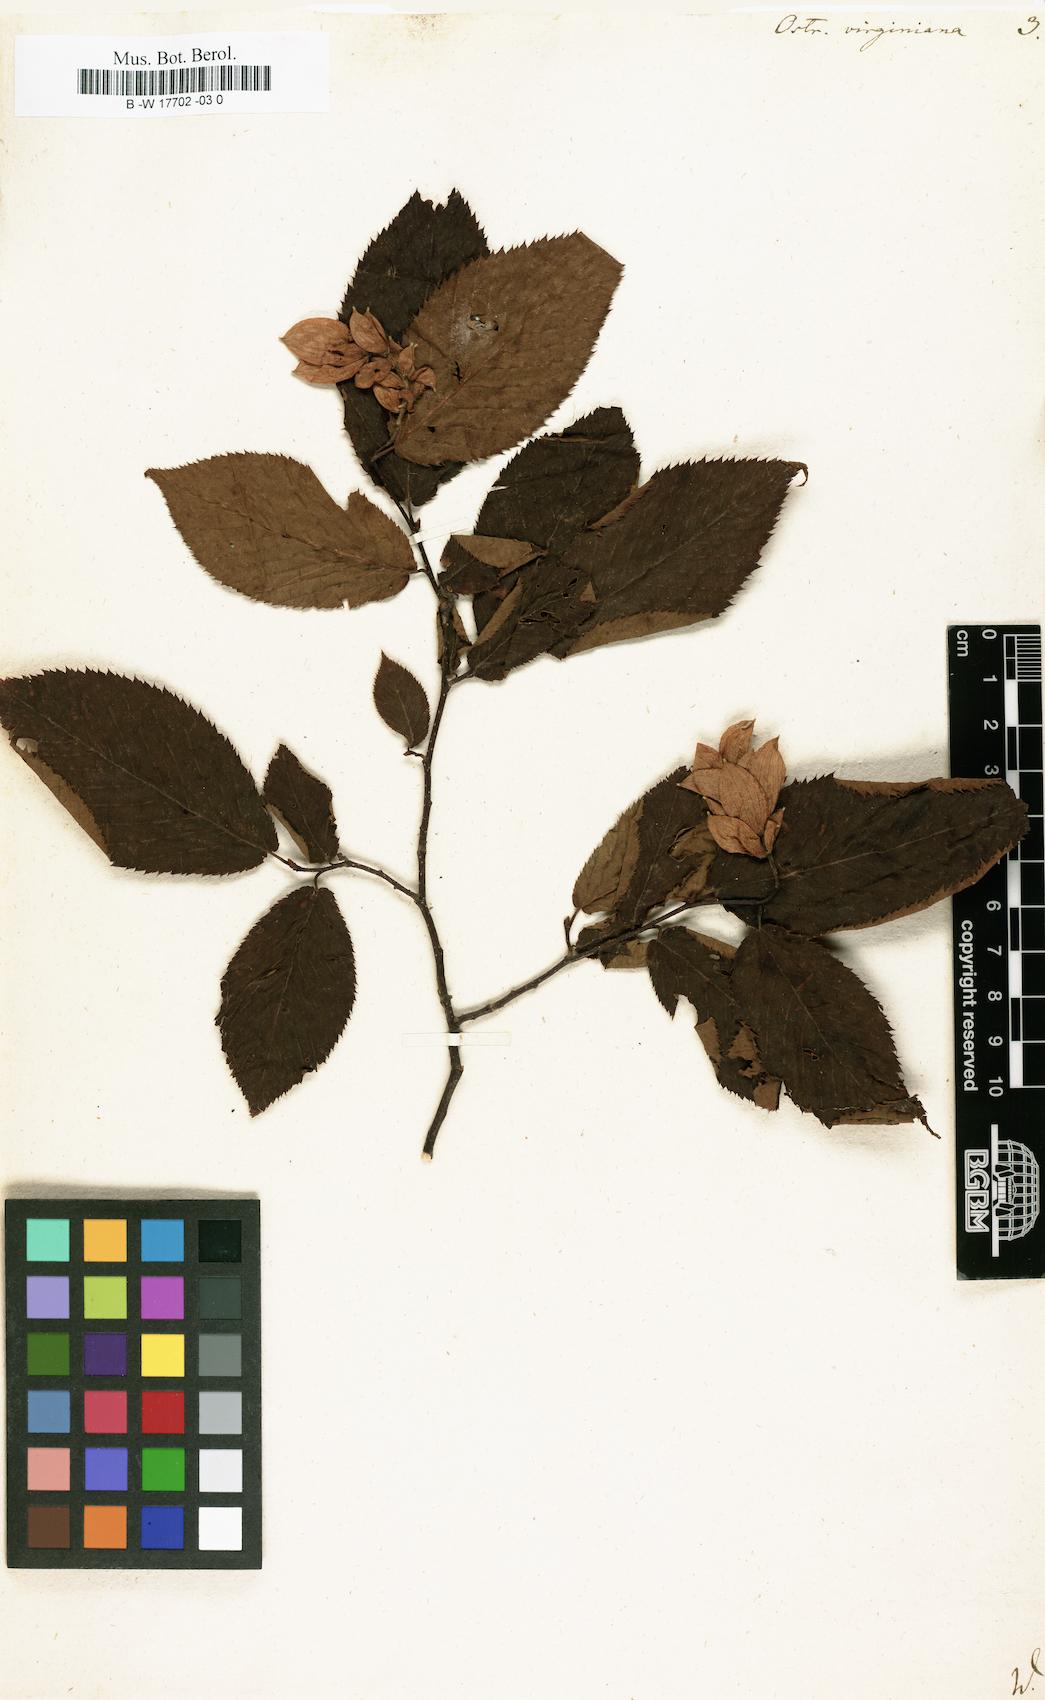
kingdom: Plantae
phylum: Tracheophyta
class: Magnoliopsida
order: Fagales
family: Betulaceae
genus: Ostrya
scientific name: Ostrya virginiana
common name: Ironwood
